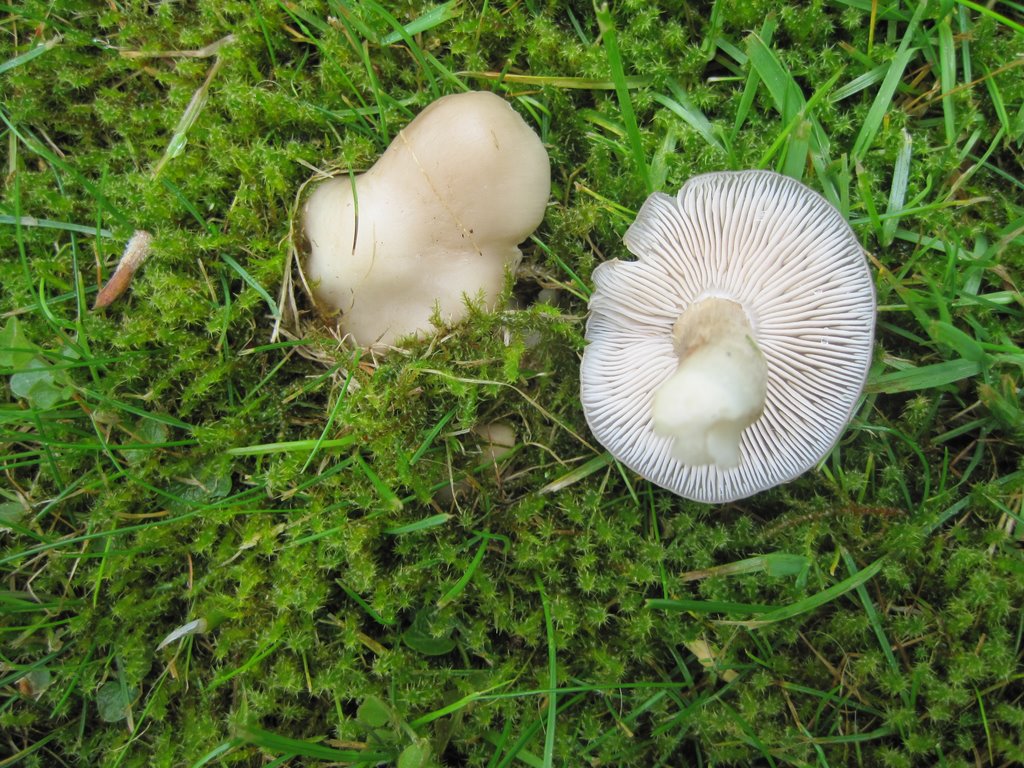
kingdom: Fungi
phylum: Basidiomycota
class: Agaricomycetes
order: Agaricales
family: Entolomataceae
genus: Entoloma
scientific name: Entoloma clypeatum
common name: flammet rødblad
